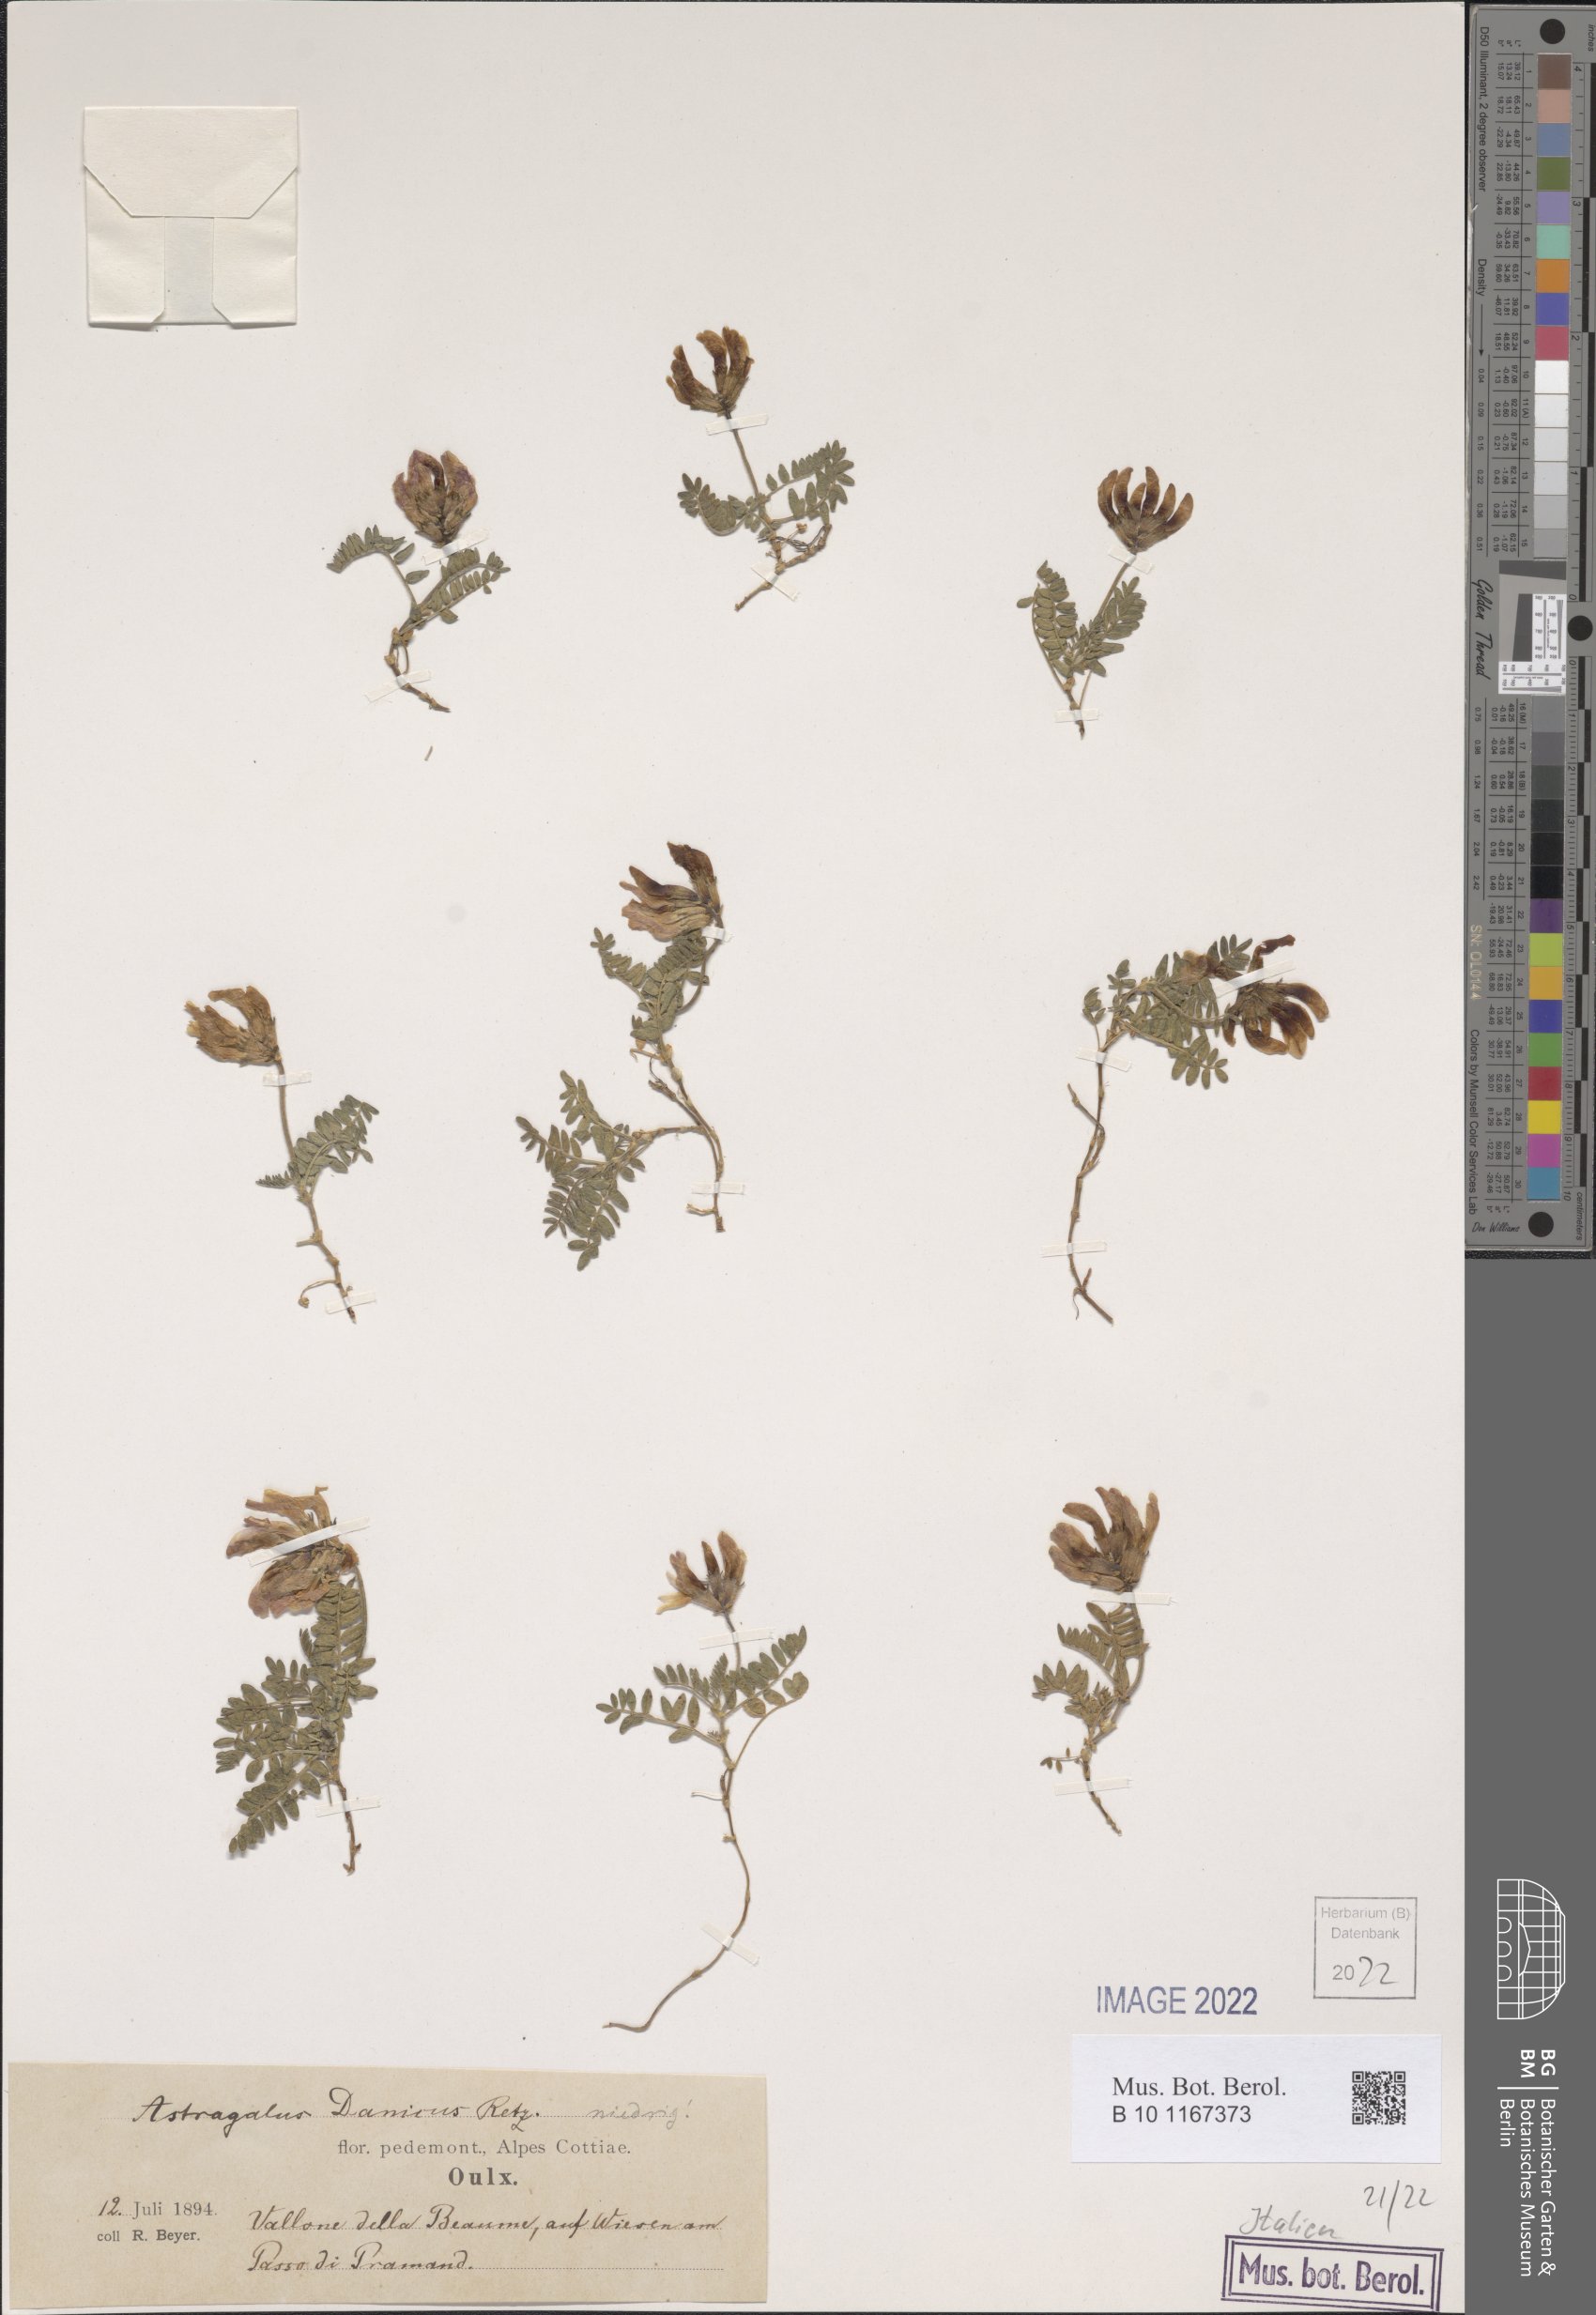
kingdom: Plantae
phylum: Tracheophyta
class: Magnoliopsida
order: Fabales
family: Fabaceae
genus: Astragalus
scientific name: Astragalus danicus
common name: Purple milk-vetch
